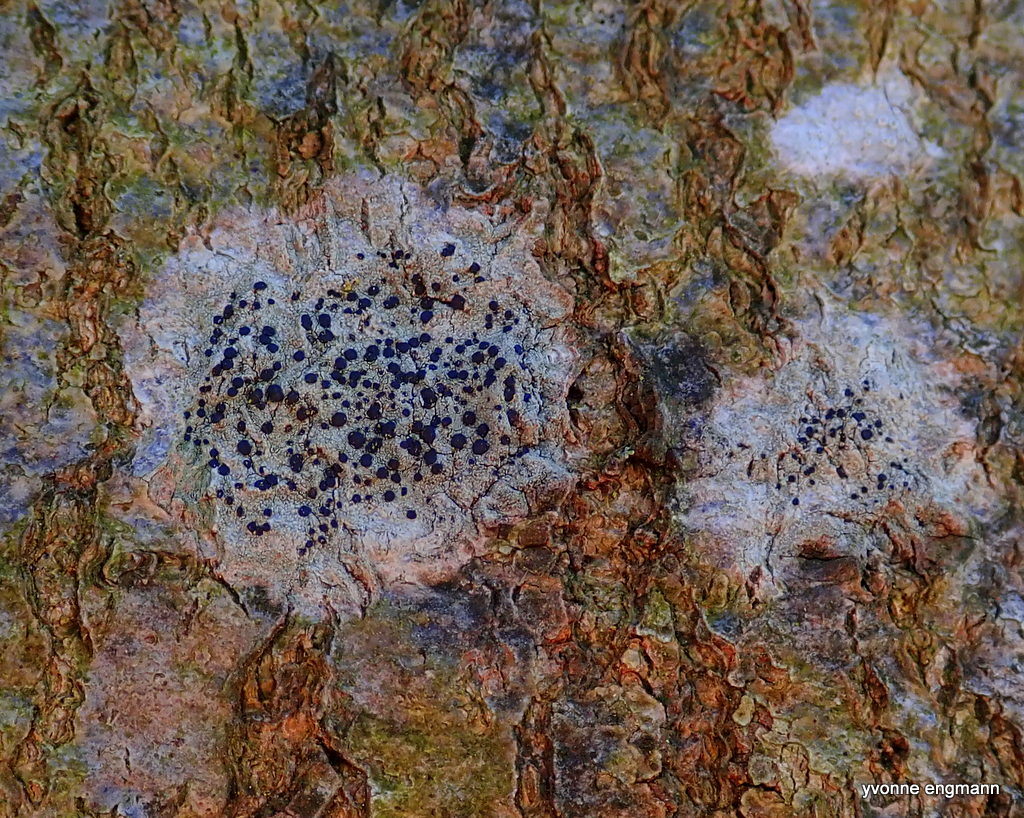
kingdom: Fungi
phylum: Ascomycota
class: Lecanoromycetes
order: Lecanorales
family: Lecanoraceae
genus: Lecidella
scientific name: Lecidella elaeochroma
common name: grågrøn skivelav
